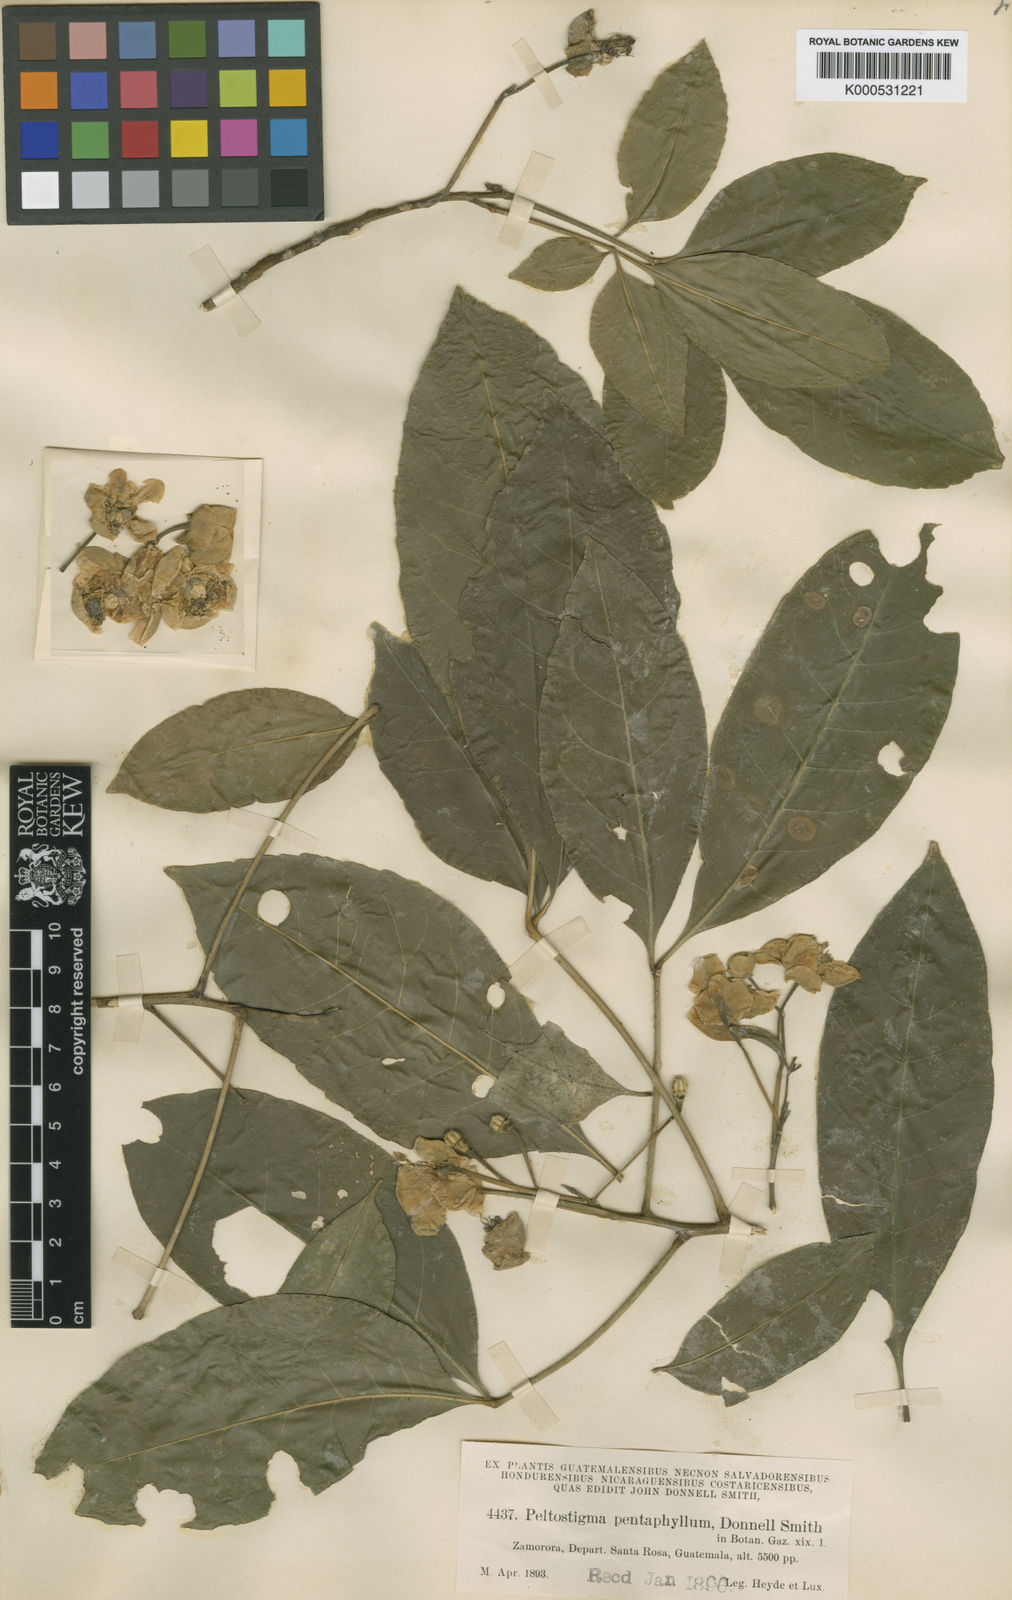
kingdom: Plantae
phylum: Tracheophyta
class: Magnoliopsida
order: Sapindales
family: Rutaceae
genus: Peltostigma
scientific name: Peltostigma pteleoides
